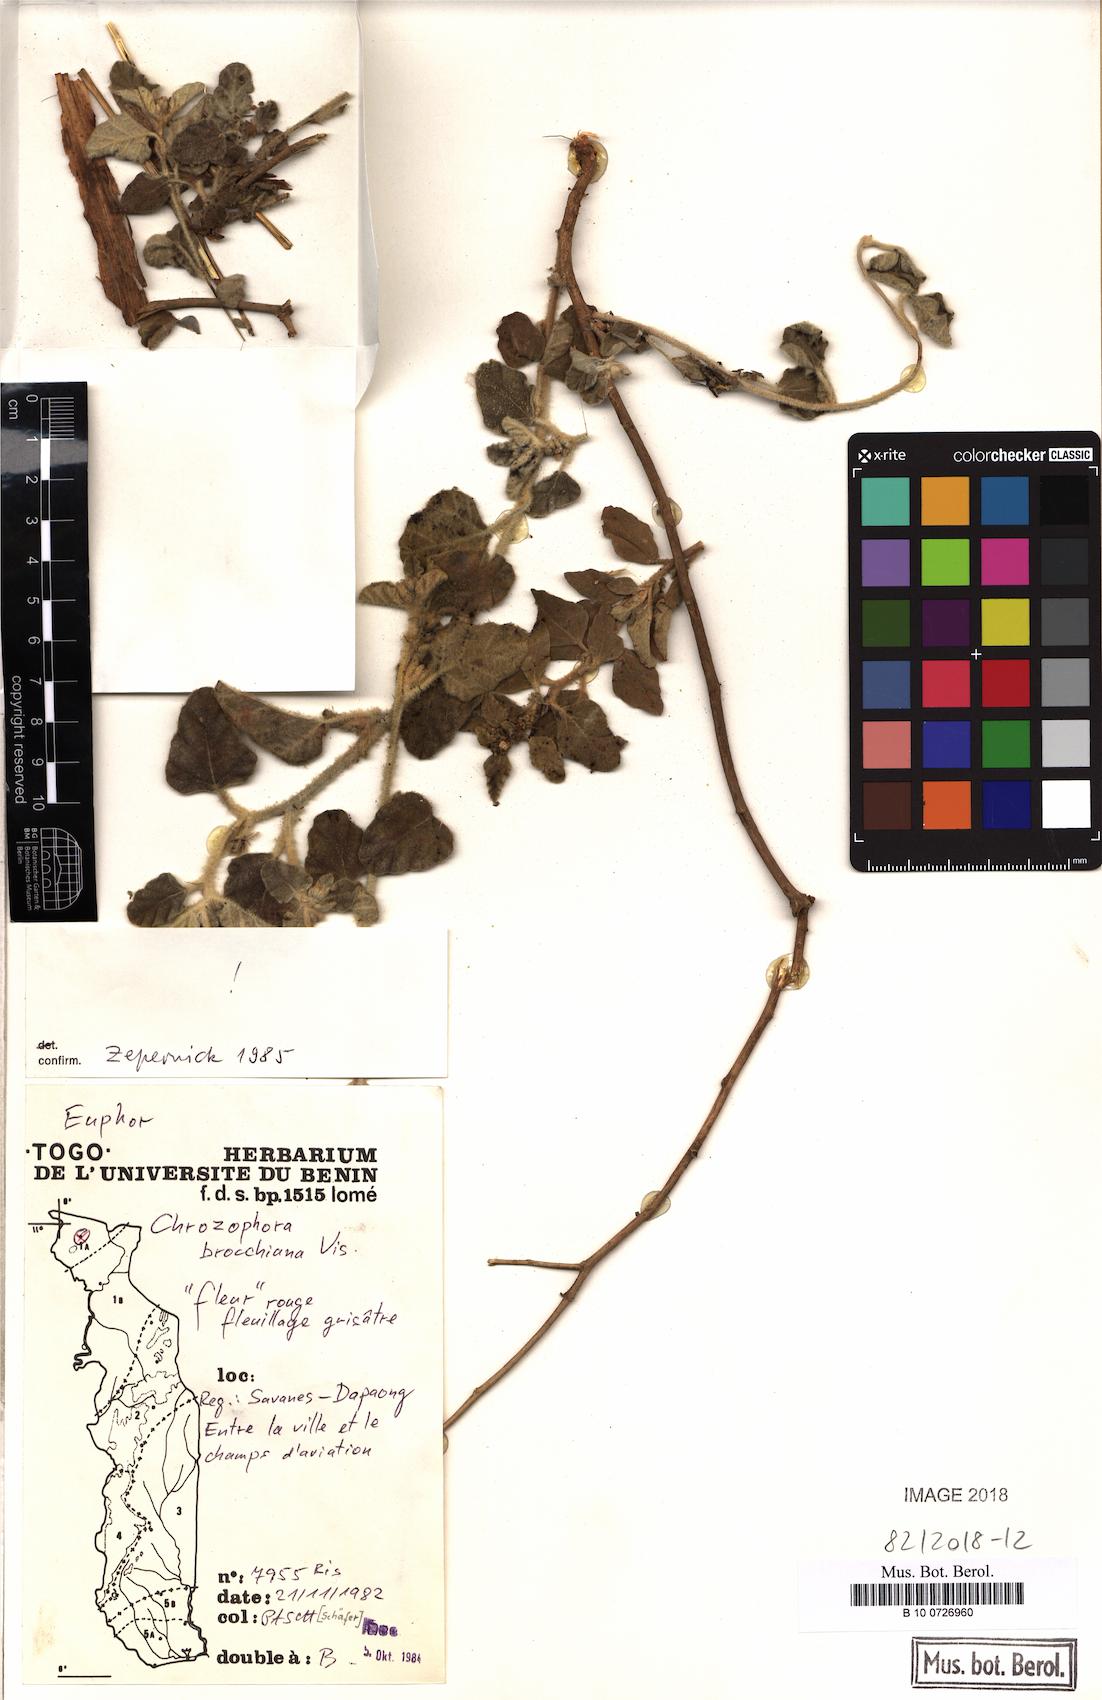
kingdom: Plantae
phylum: Tracheophyta
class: Magnoliopsida
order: Malpighiales
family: Euphorbiaceae
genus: Chrozophora
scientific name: Chrozophora brocchiana
